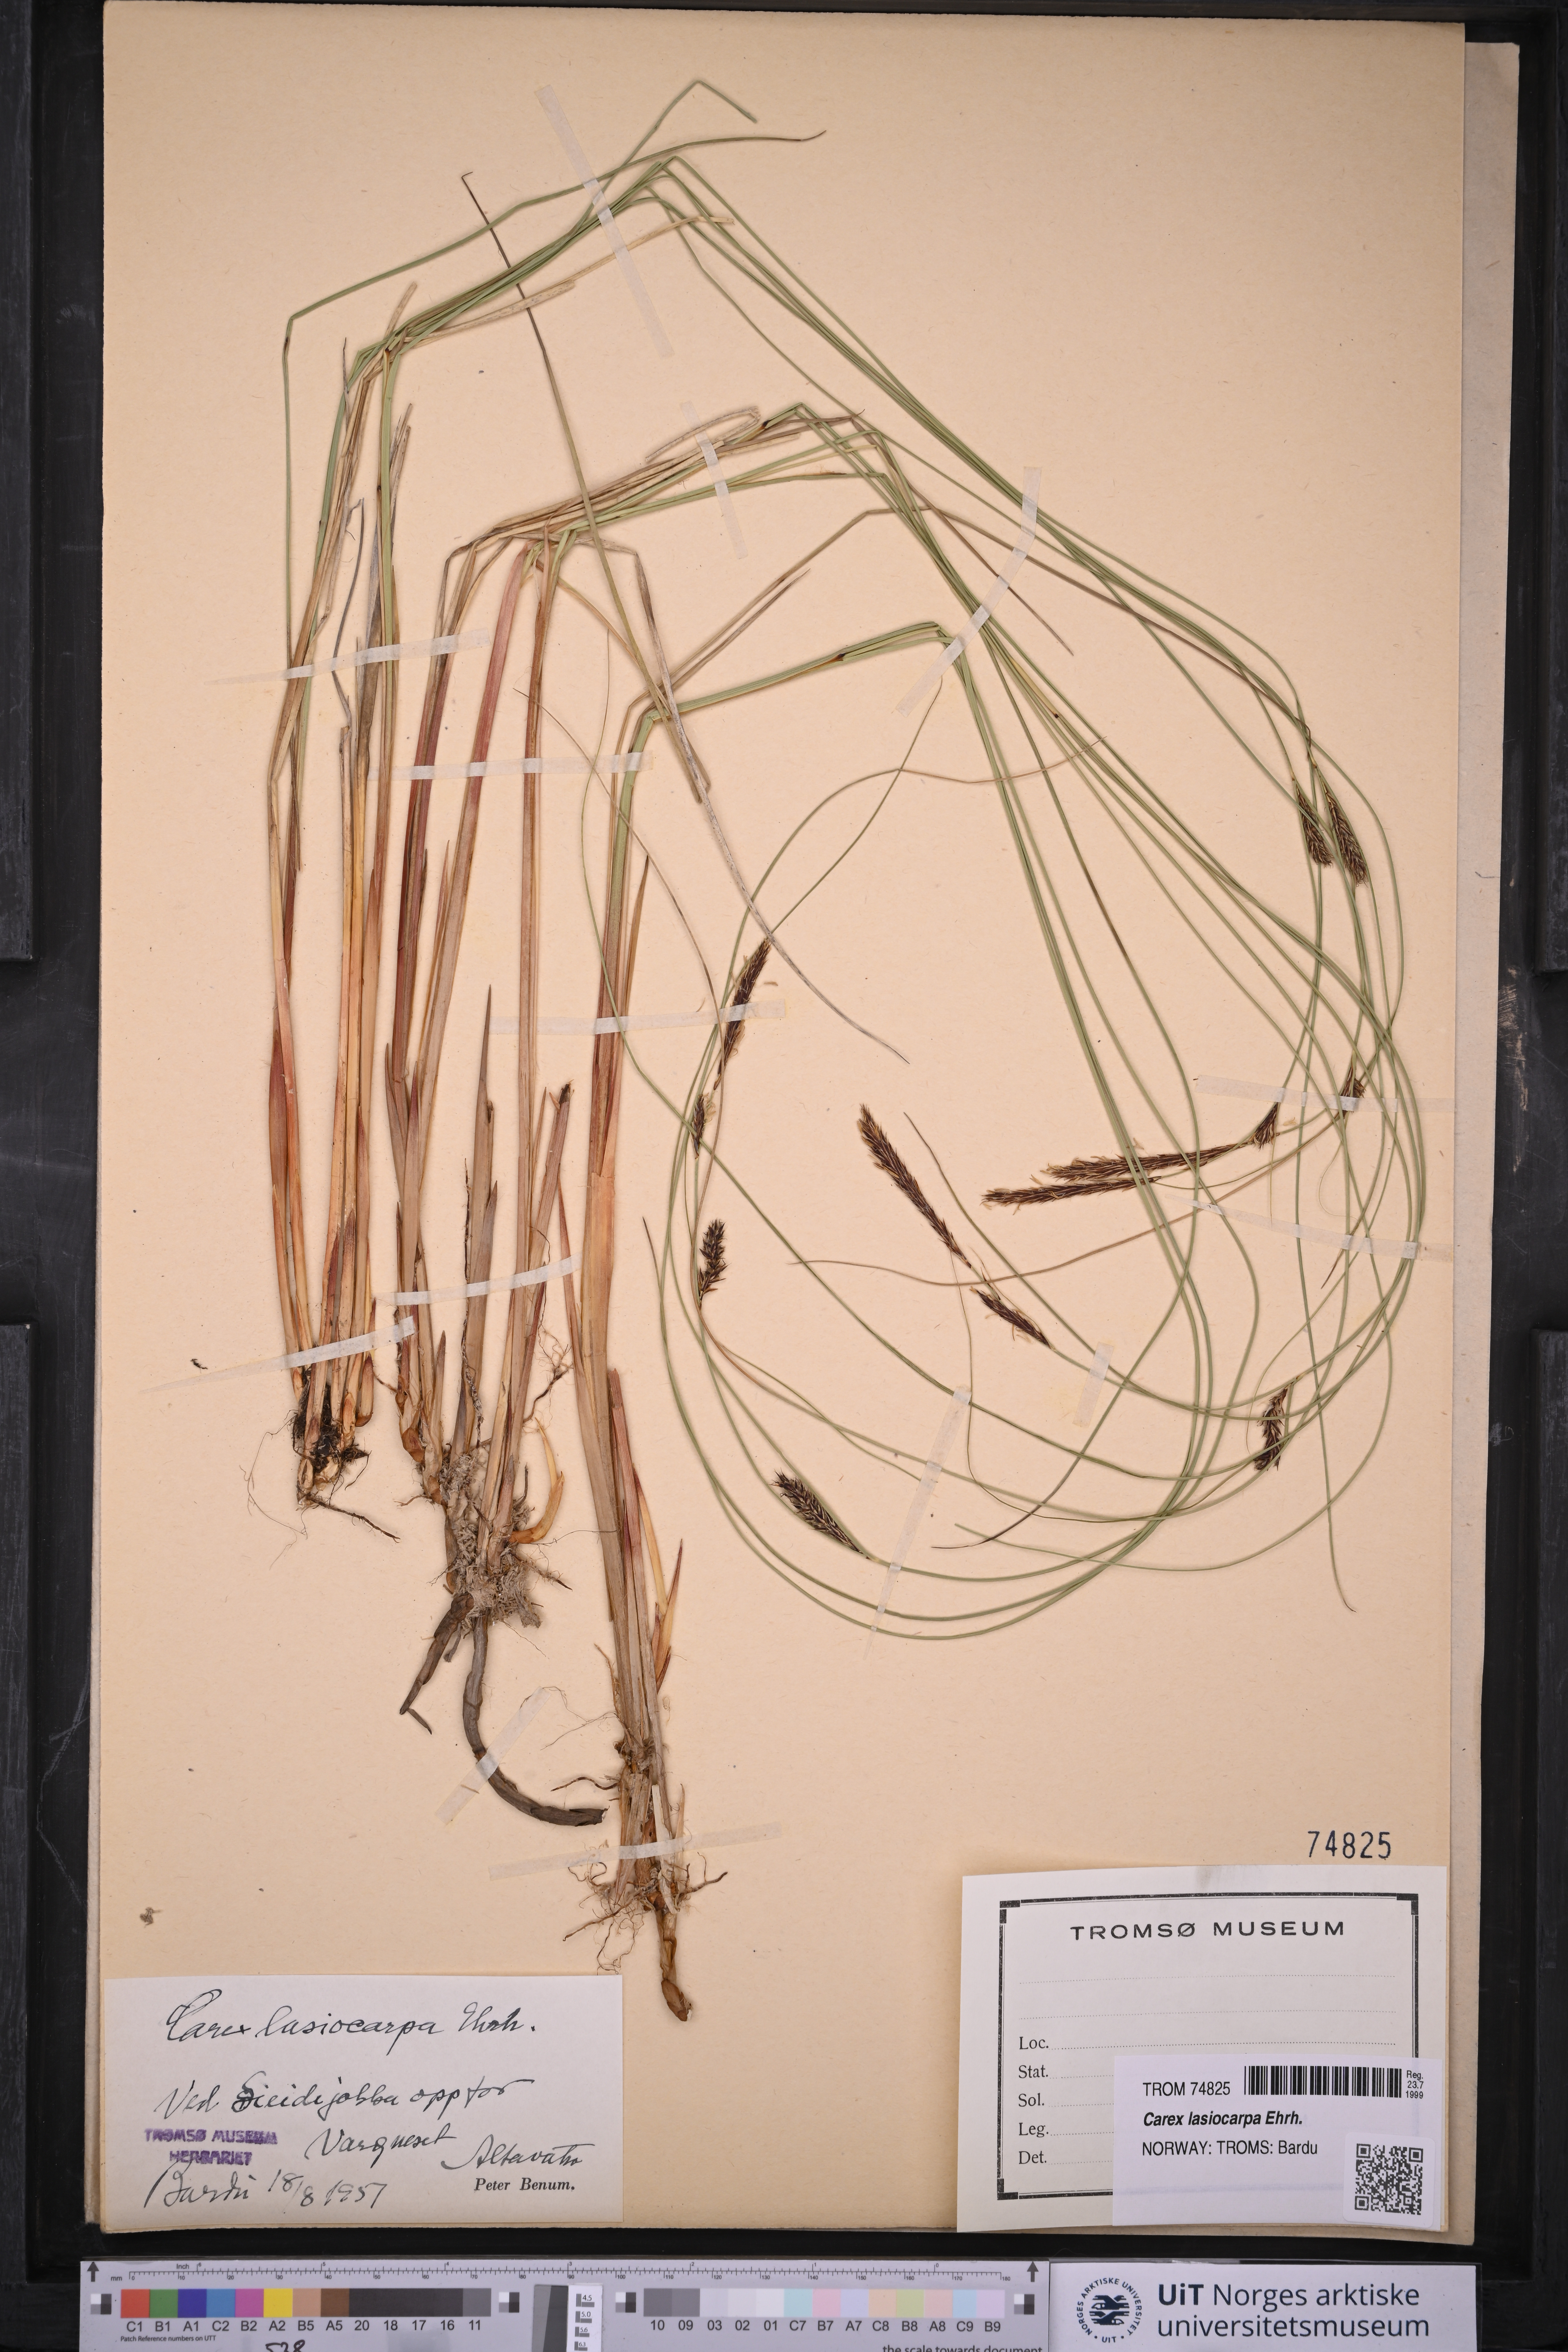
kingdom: Plantae
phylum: Tracheophyta
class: Liliopsida
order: Poales
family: Cyperaceae
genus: Carex
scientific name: Carex lasiocarpa
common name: Slender sedge
